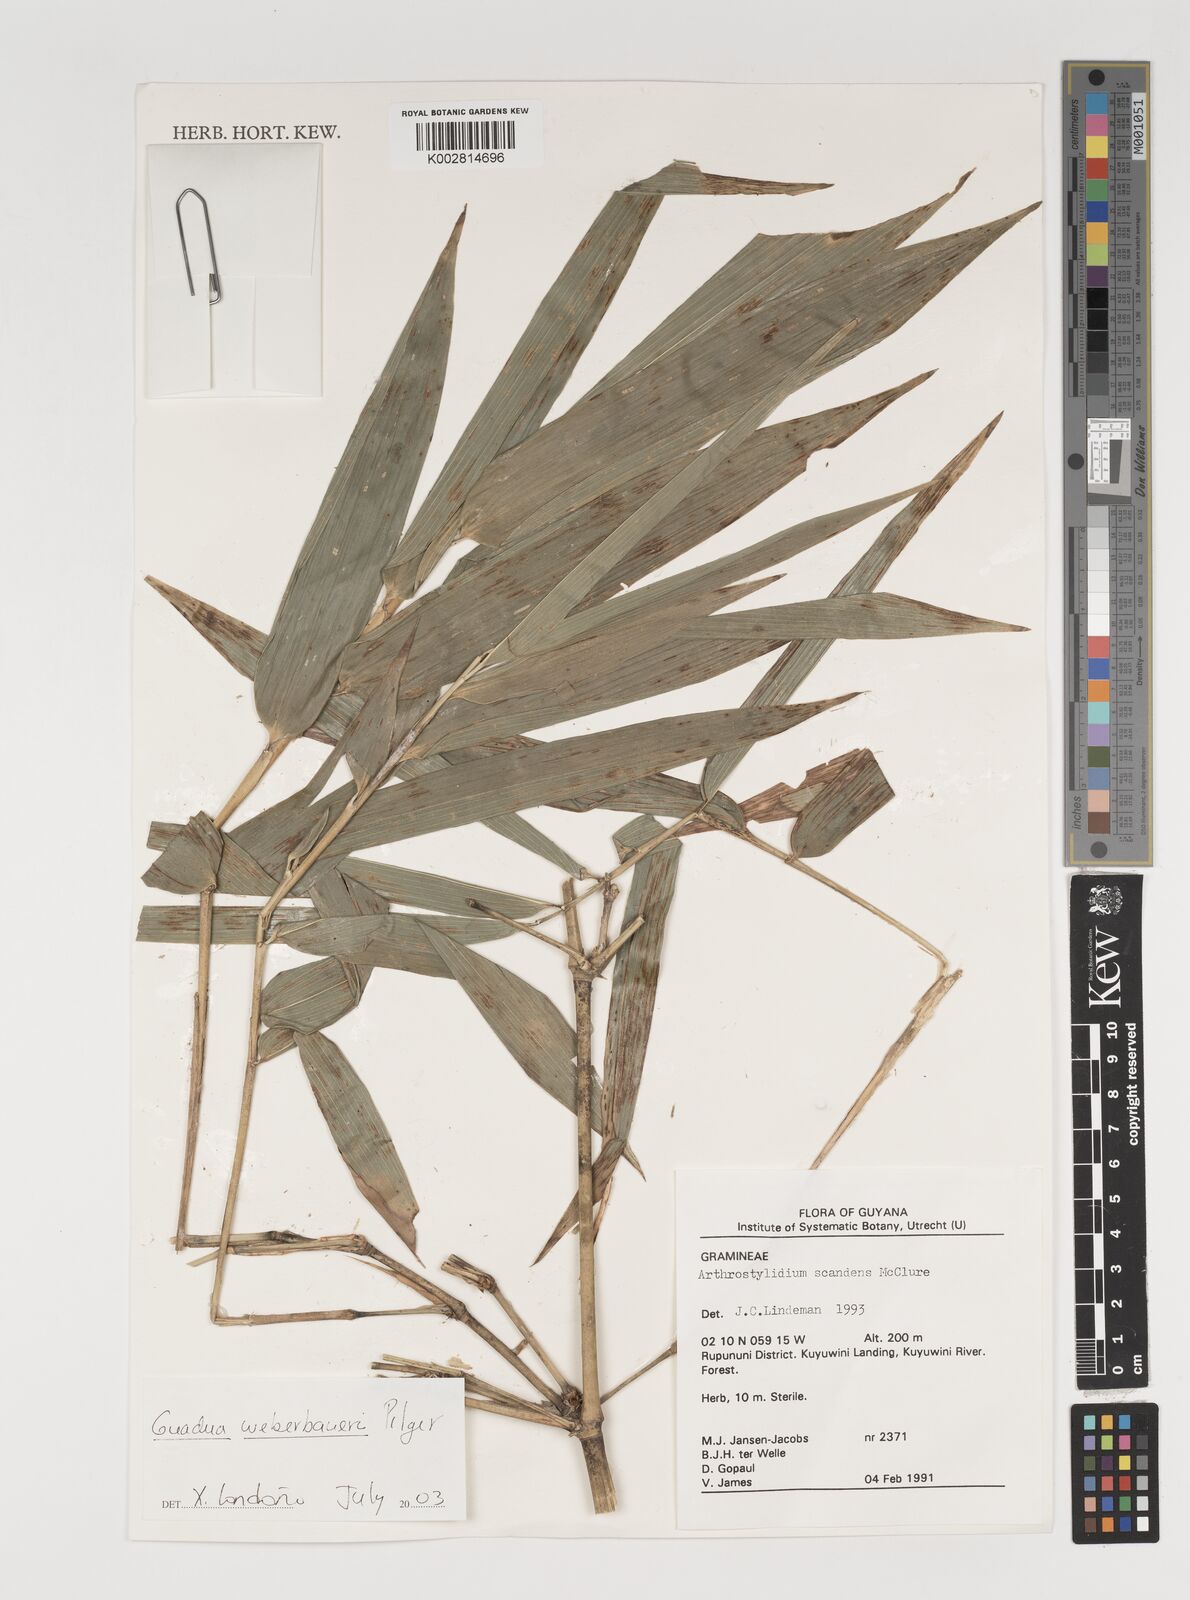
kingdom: Plantae
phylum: Tracheophyta
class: Liliopsida
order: Poales
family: Poaceae
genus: Guadua
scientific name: Guadua weberbaueri
